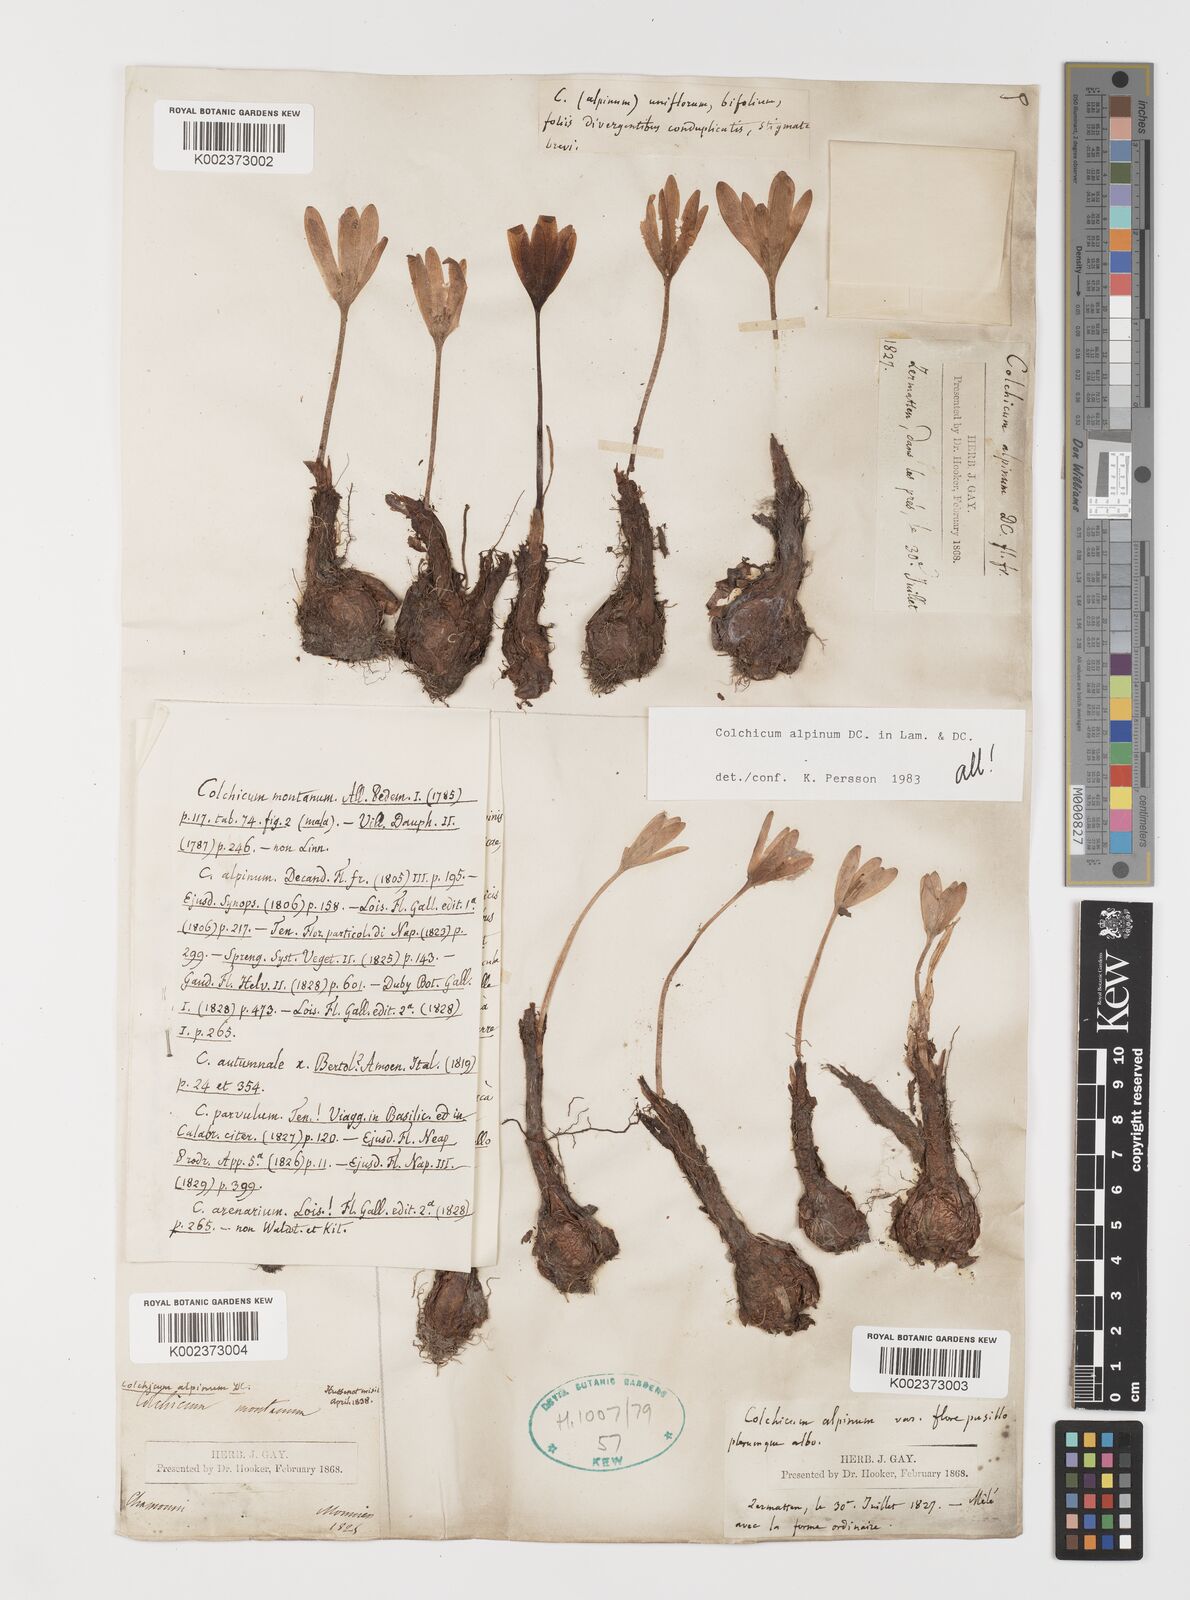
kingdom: Plantae
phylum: Tracheophyta
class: Liliopsida
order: Liliales
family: Colchicaceae
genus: Colchicum
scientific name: Colchicum alpinum
